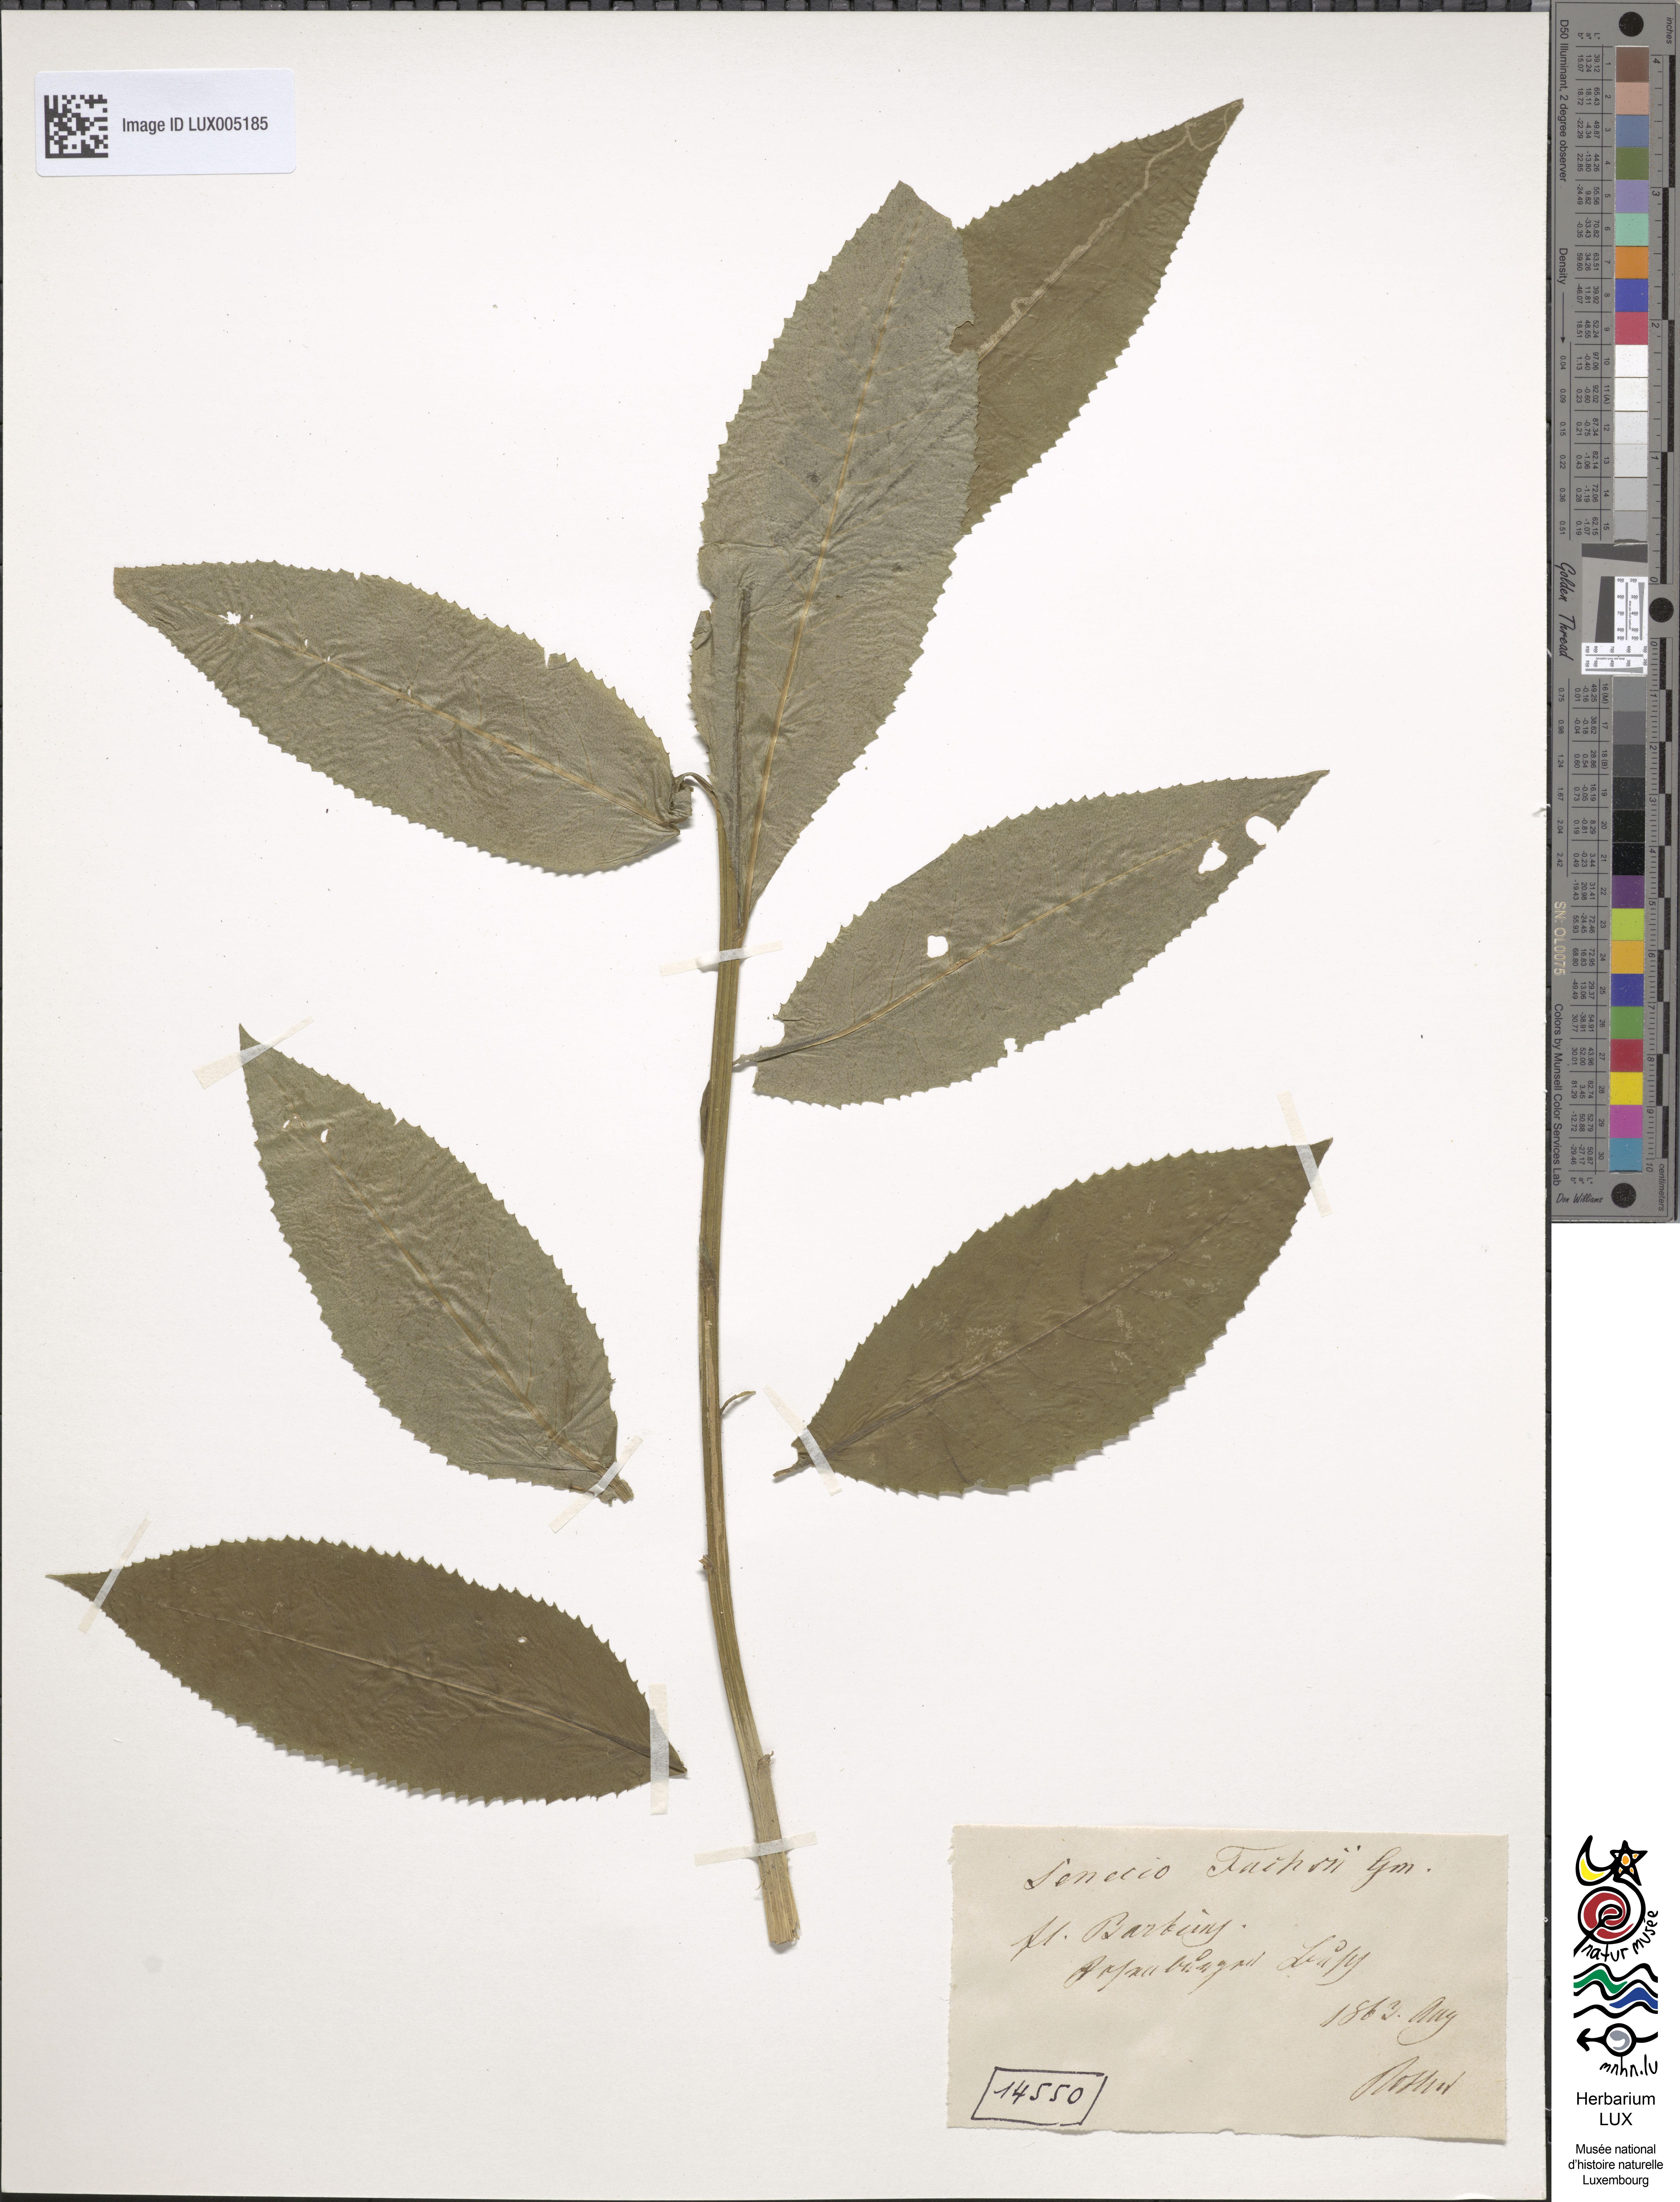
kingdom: Plantae
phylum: Tracheophyta
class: Magnoliopsida
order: Asterales
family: Asteraceae
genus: Senecio
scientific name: Senecio ovatus
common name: Wood ragwort
